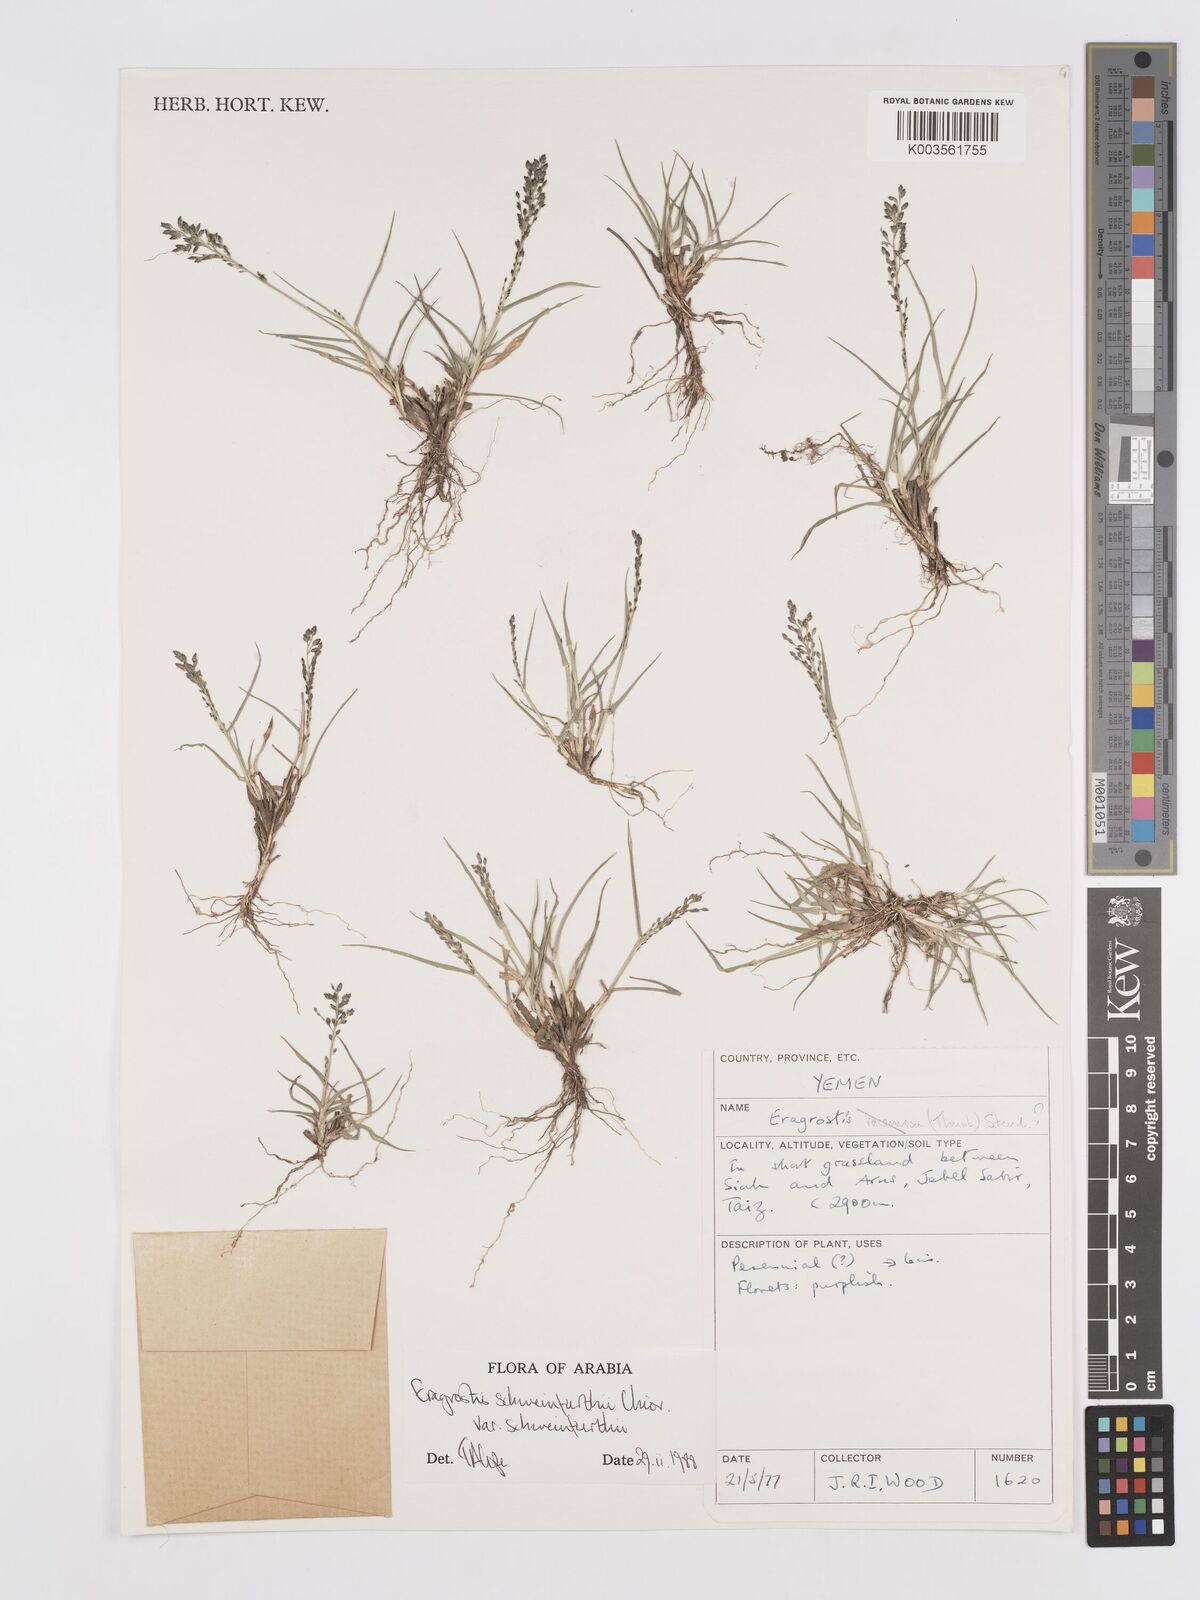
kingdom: Plantae
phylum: Tracheophyta
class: Liliopsida
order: Poales
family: Poaceae
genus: Eragrostis
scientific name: Eragrostis schweinfurthii
